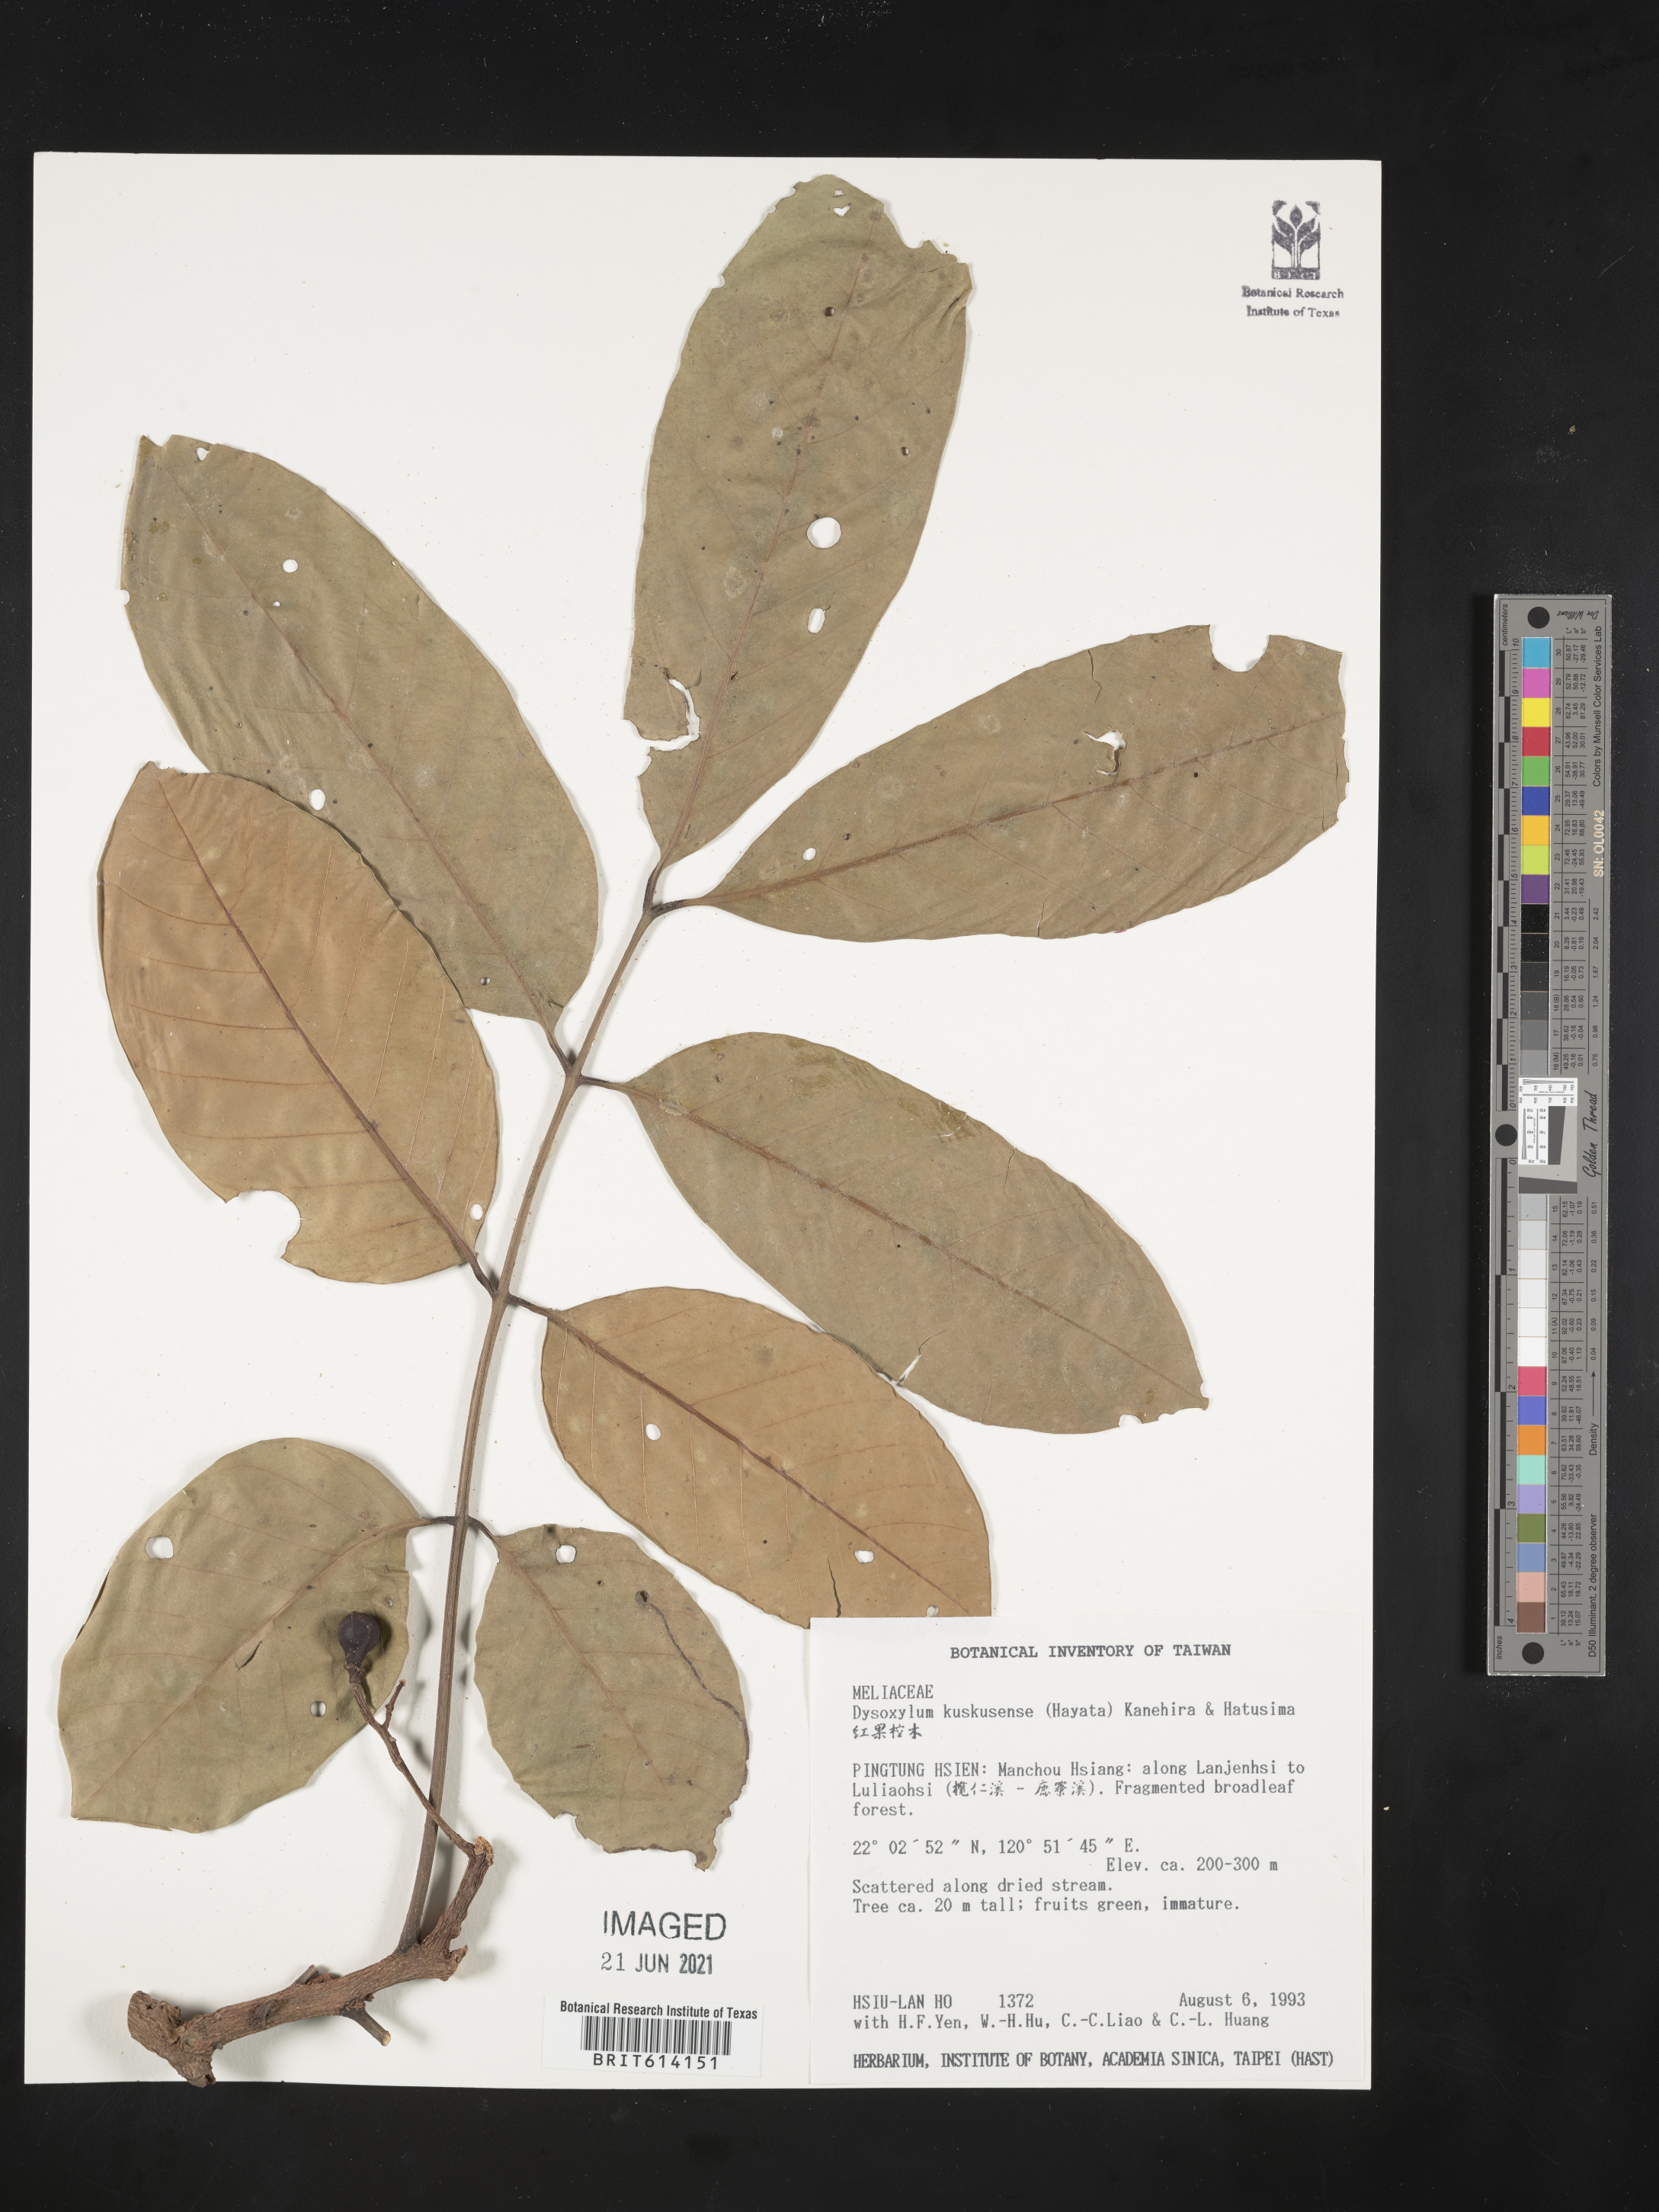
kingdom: Plantae
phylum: Tracheophyta
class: Magnoliopsida
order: Sapindales
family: Meliaceae
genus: Prasoxylon
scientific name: Prasoxylon hongkongense
